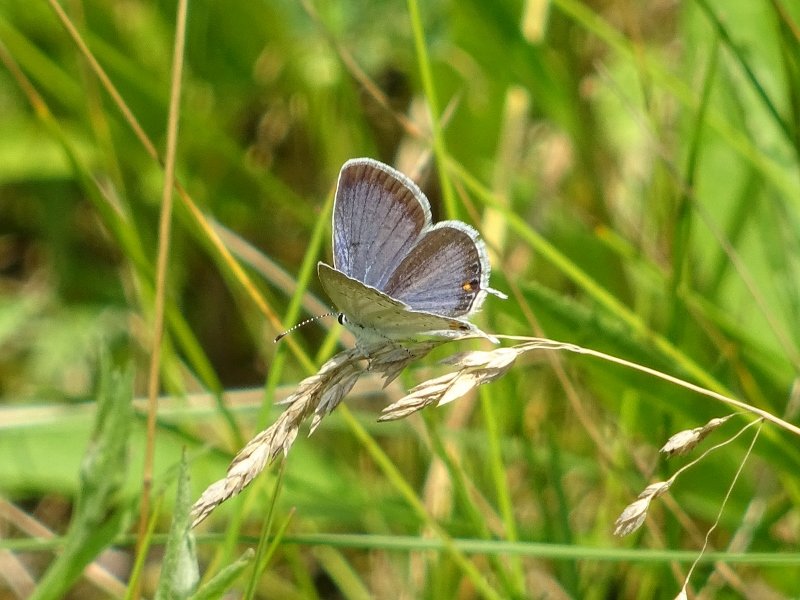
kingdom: Animalia
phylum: Arthropoda
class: Insecta
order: Lepidoptera
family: Lycaenidae
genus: Elkalyce
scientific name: Elkalyce comyntas
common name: Eastern Tailed-Blue
